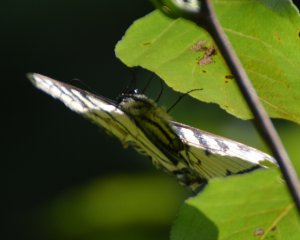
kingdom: Animalia
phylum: Arthropoda
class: Insecta
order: Lepidoptera
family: Papilionidae
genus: Pterourus
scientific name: Pterourus canadensis
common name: Canadian Tiger Swallowtail
